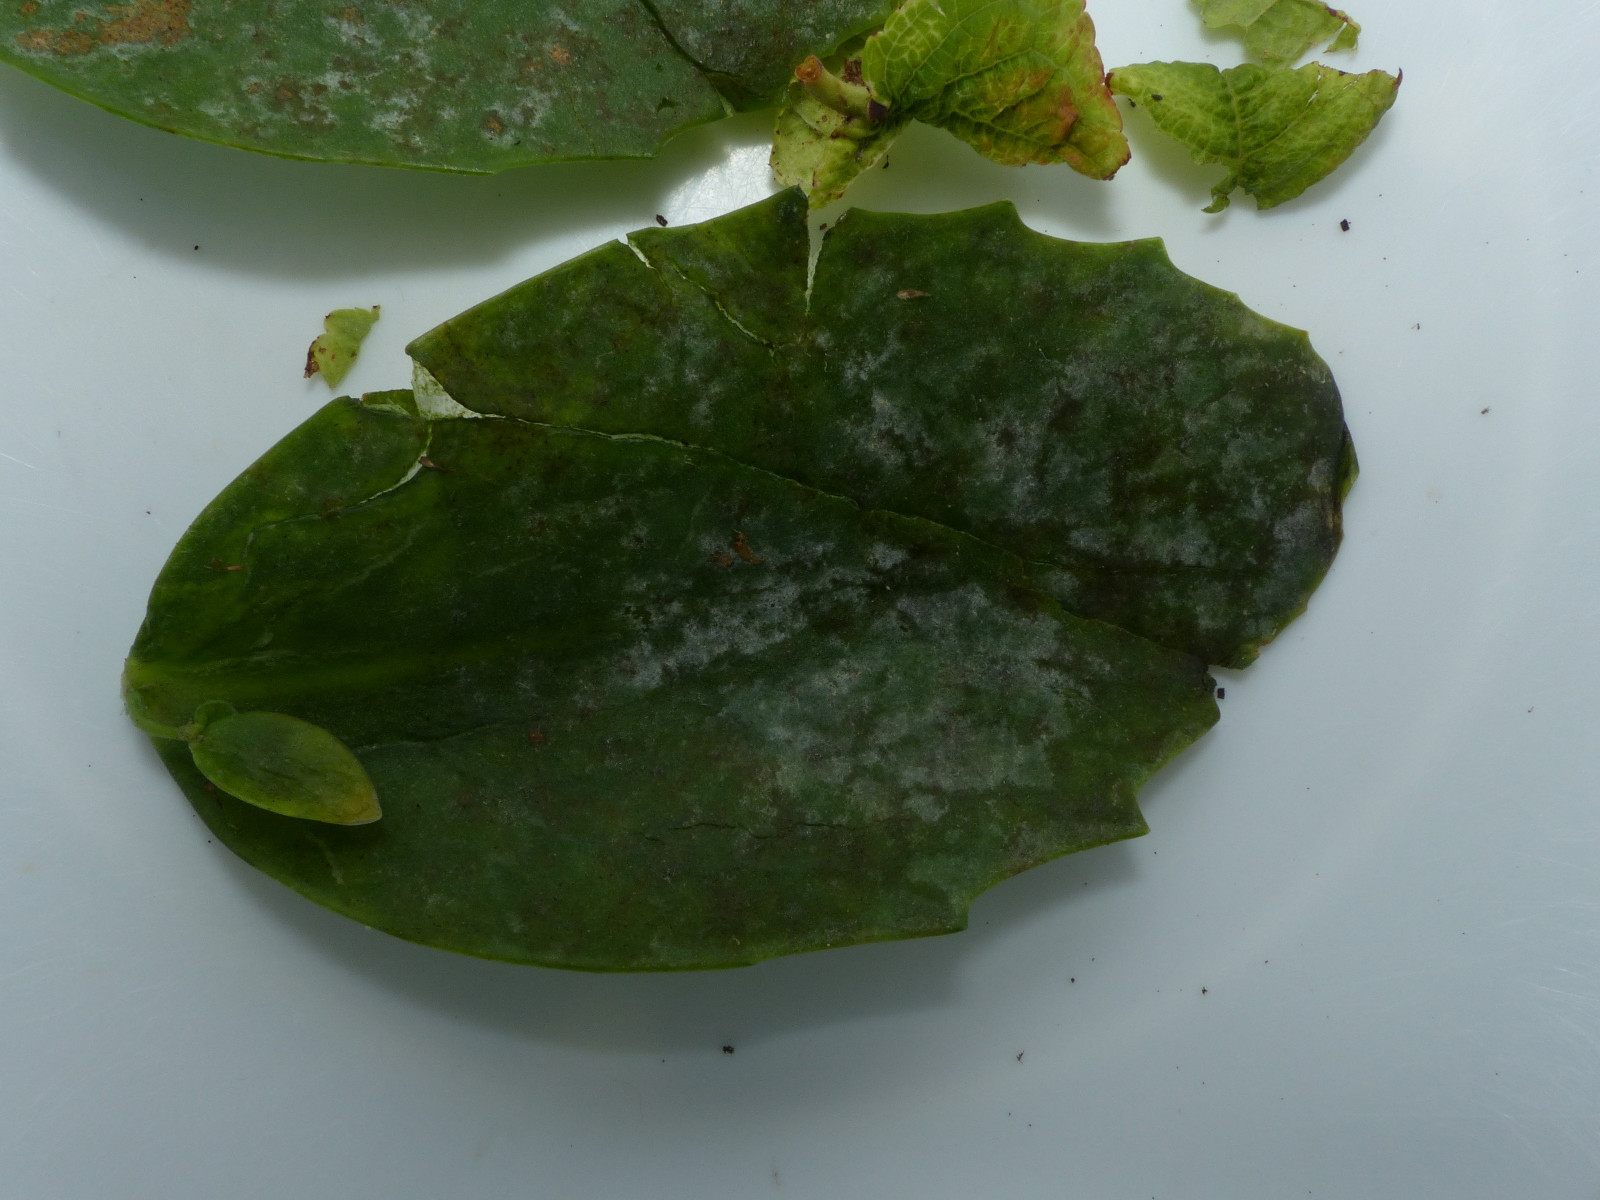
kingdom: Fungi
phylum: Ascomycota
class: Leotiomycetes
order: Helotiales
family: Erysiphaceae
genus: Erysiphe
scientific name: Erysiphe sedi
